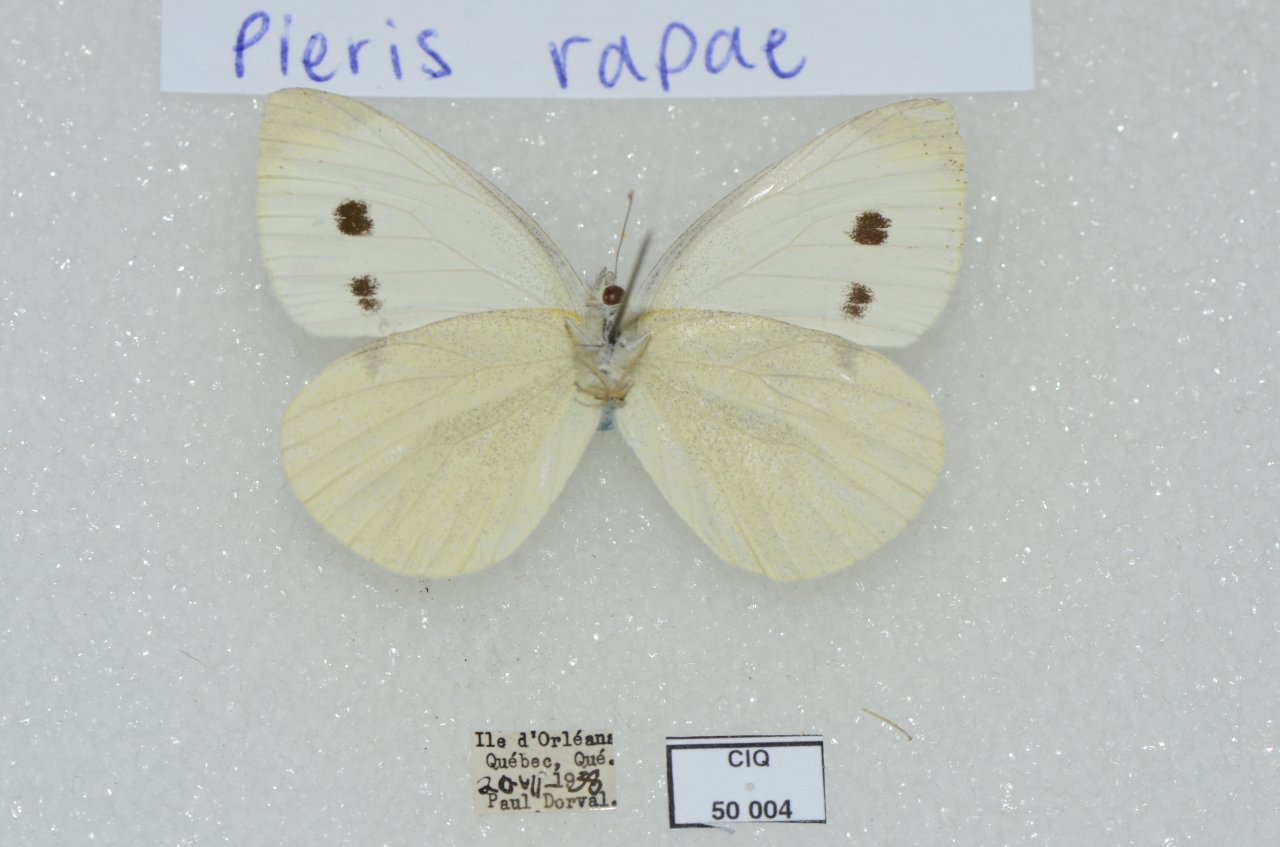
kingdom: Animalia
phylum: Arthropoda
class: Insecta
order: Lepidoptera
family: Pieridae
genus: Pieris
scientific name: Pieris rapae
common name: Cabbage White
